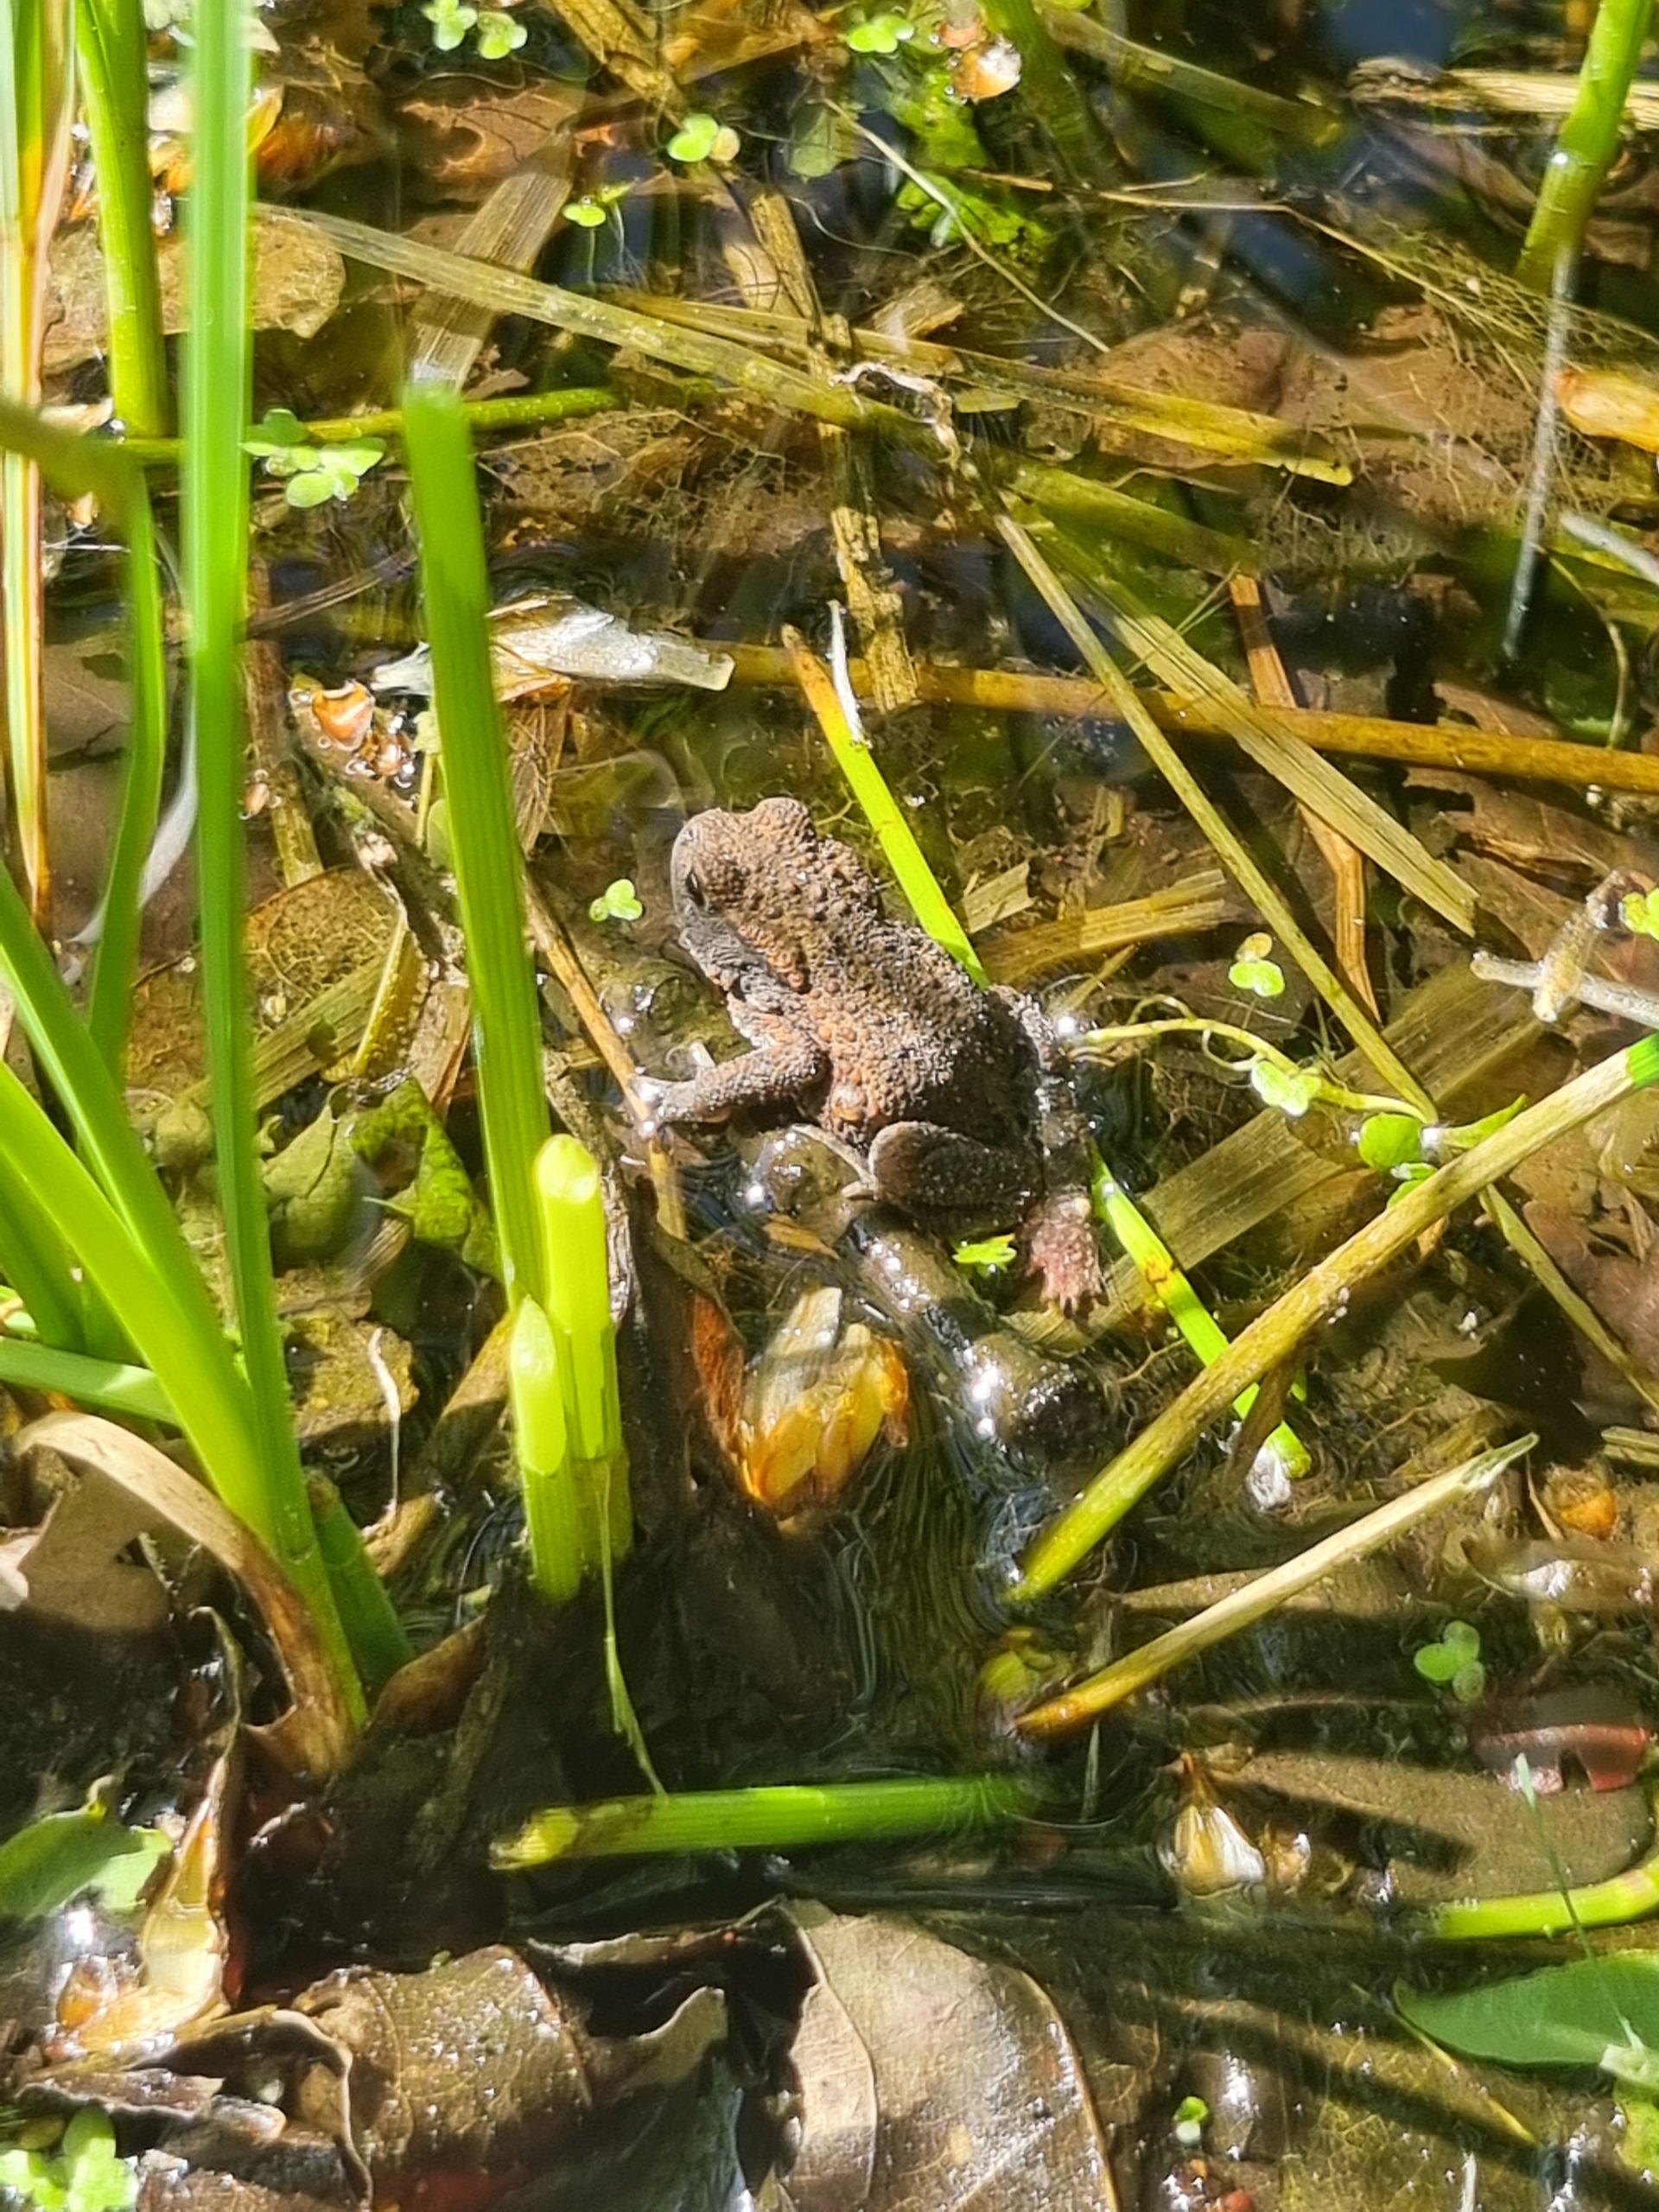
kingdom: Animalia
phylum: Chordata
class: Amphibia
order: Anura
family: Bufonidae
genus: Bufo
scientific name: Bufo bufo
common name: Skrubtudse
